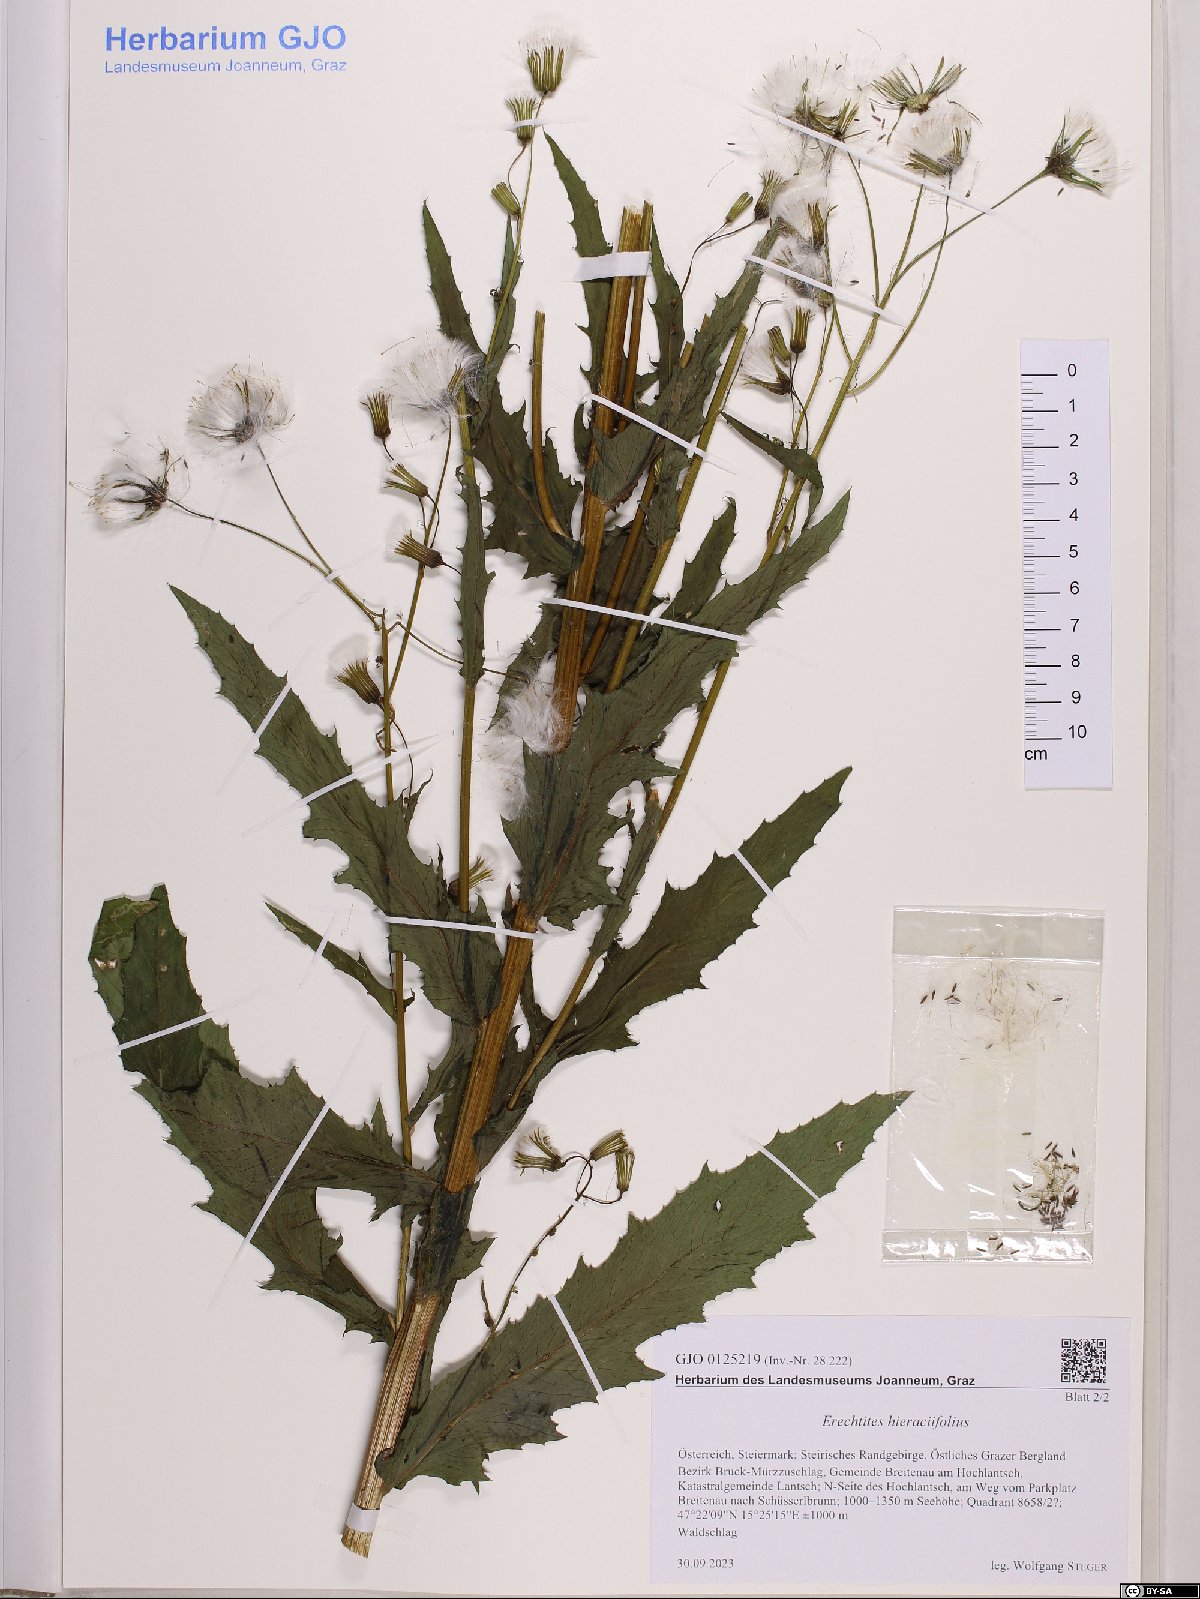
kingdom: Plantae
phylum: Tracheophyta
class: Magnoliopsida
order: Asterales
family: Asteraceae
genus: Erechtites
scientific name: Erechtites hieraciifolius
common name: American burnweed
